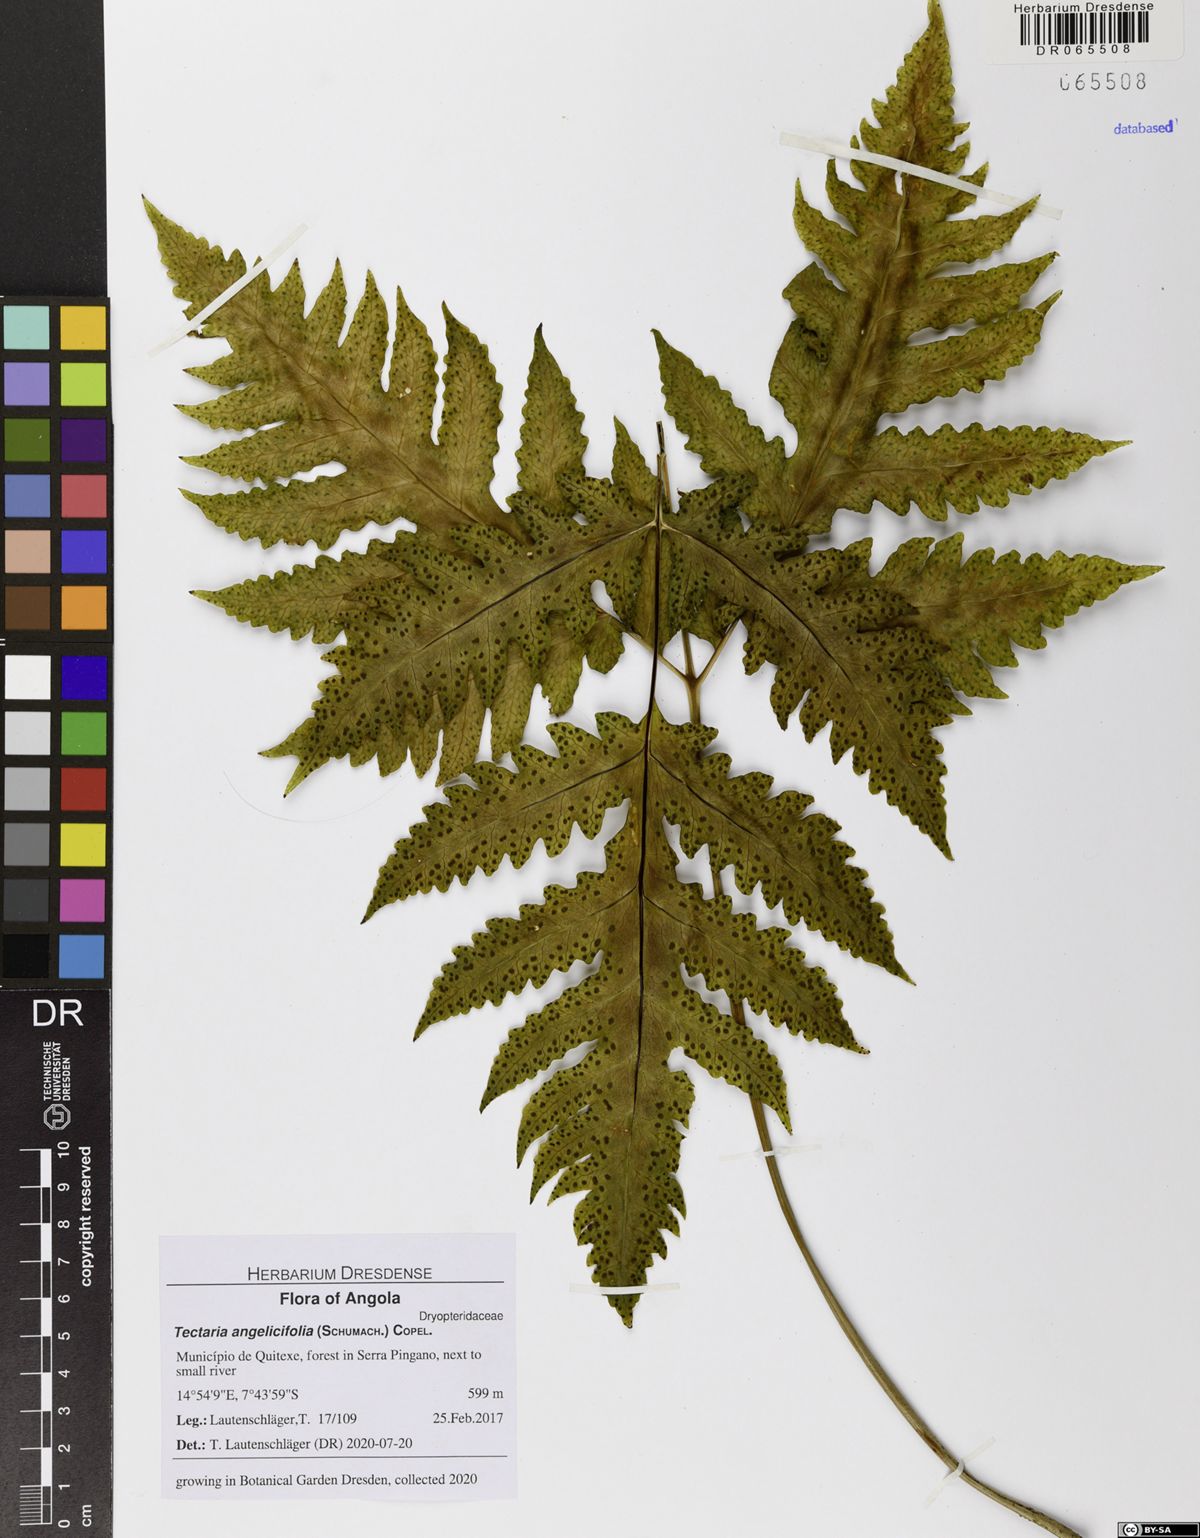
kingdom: Plantae
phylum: Tracheophyta
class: Polypodiopsida
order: Polypodiales
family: Tectariaceae
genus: Tectaria
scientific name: Tectaria angelicifolia
